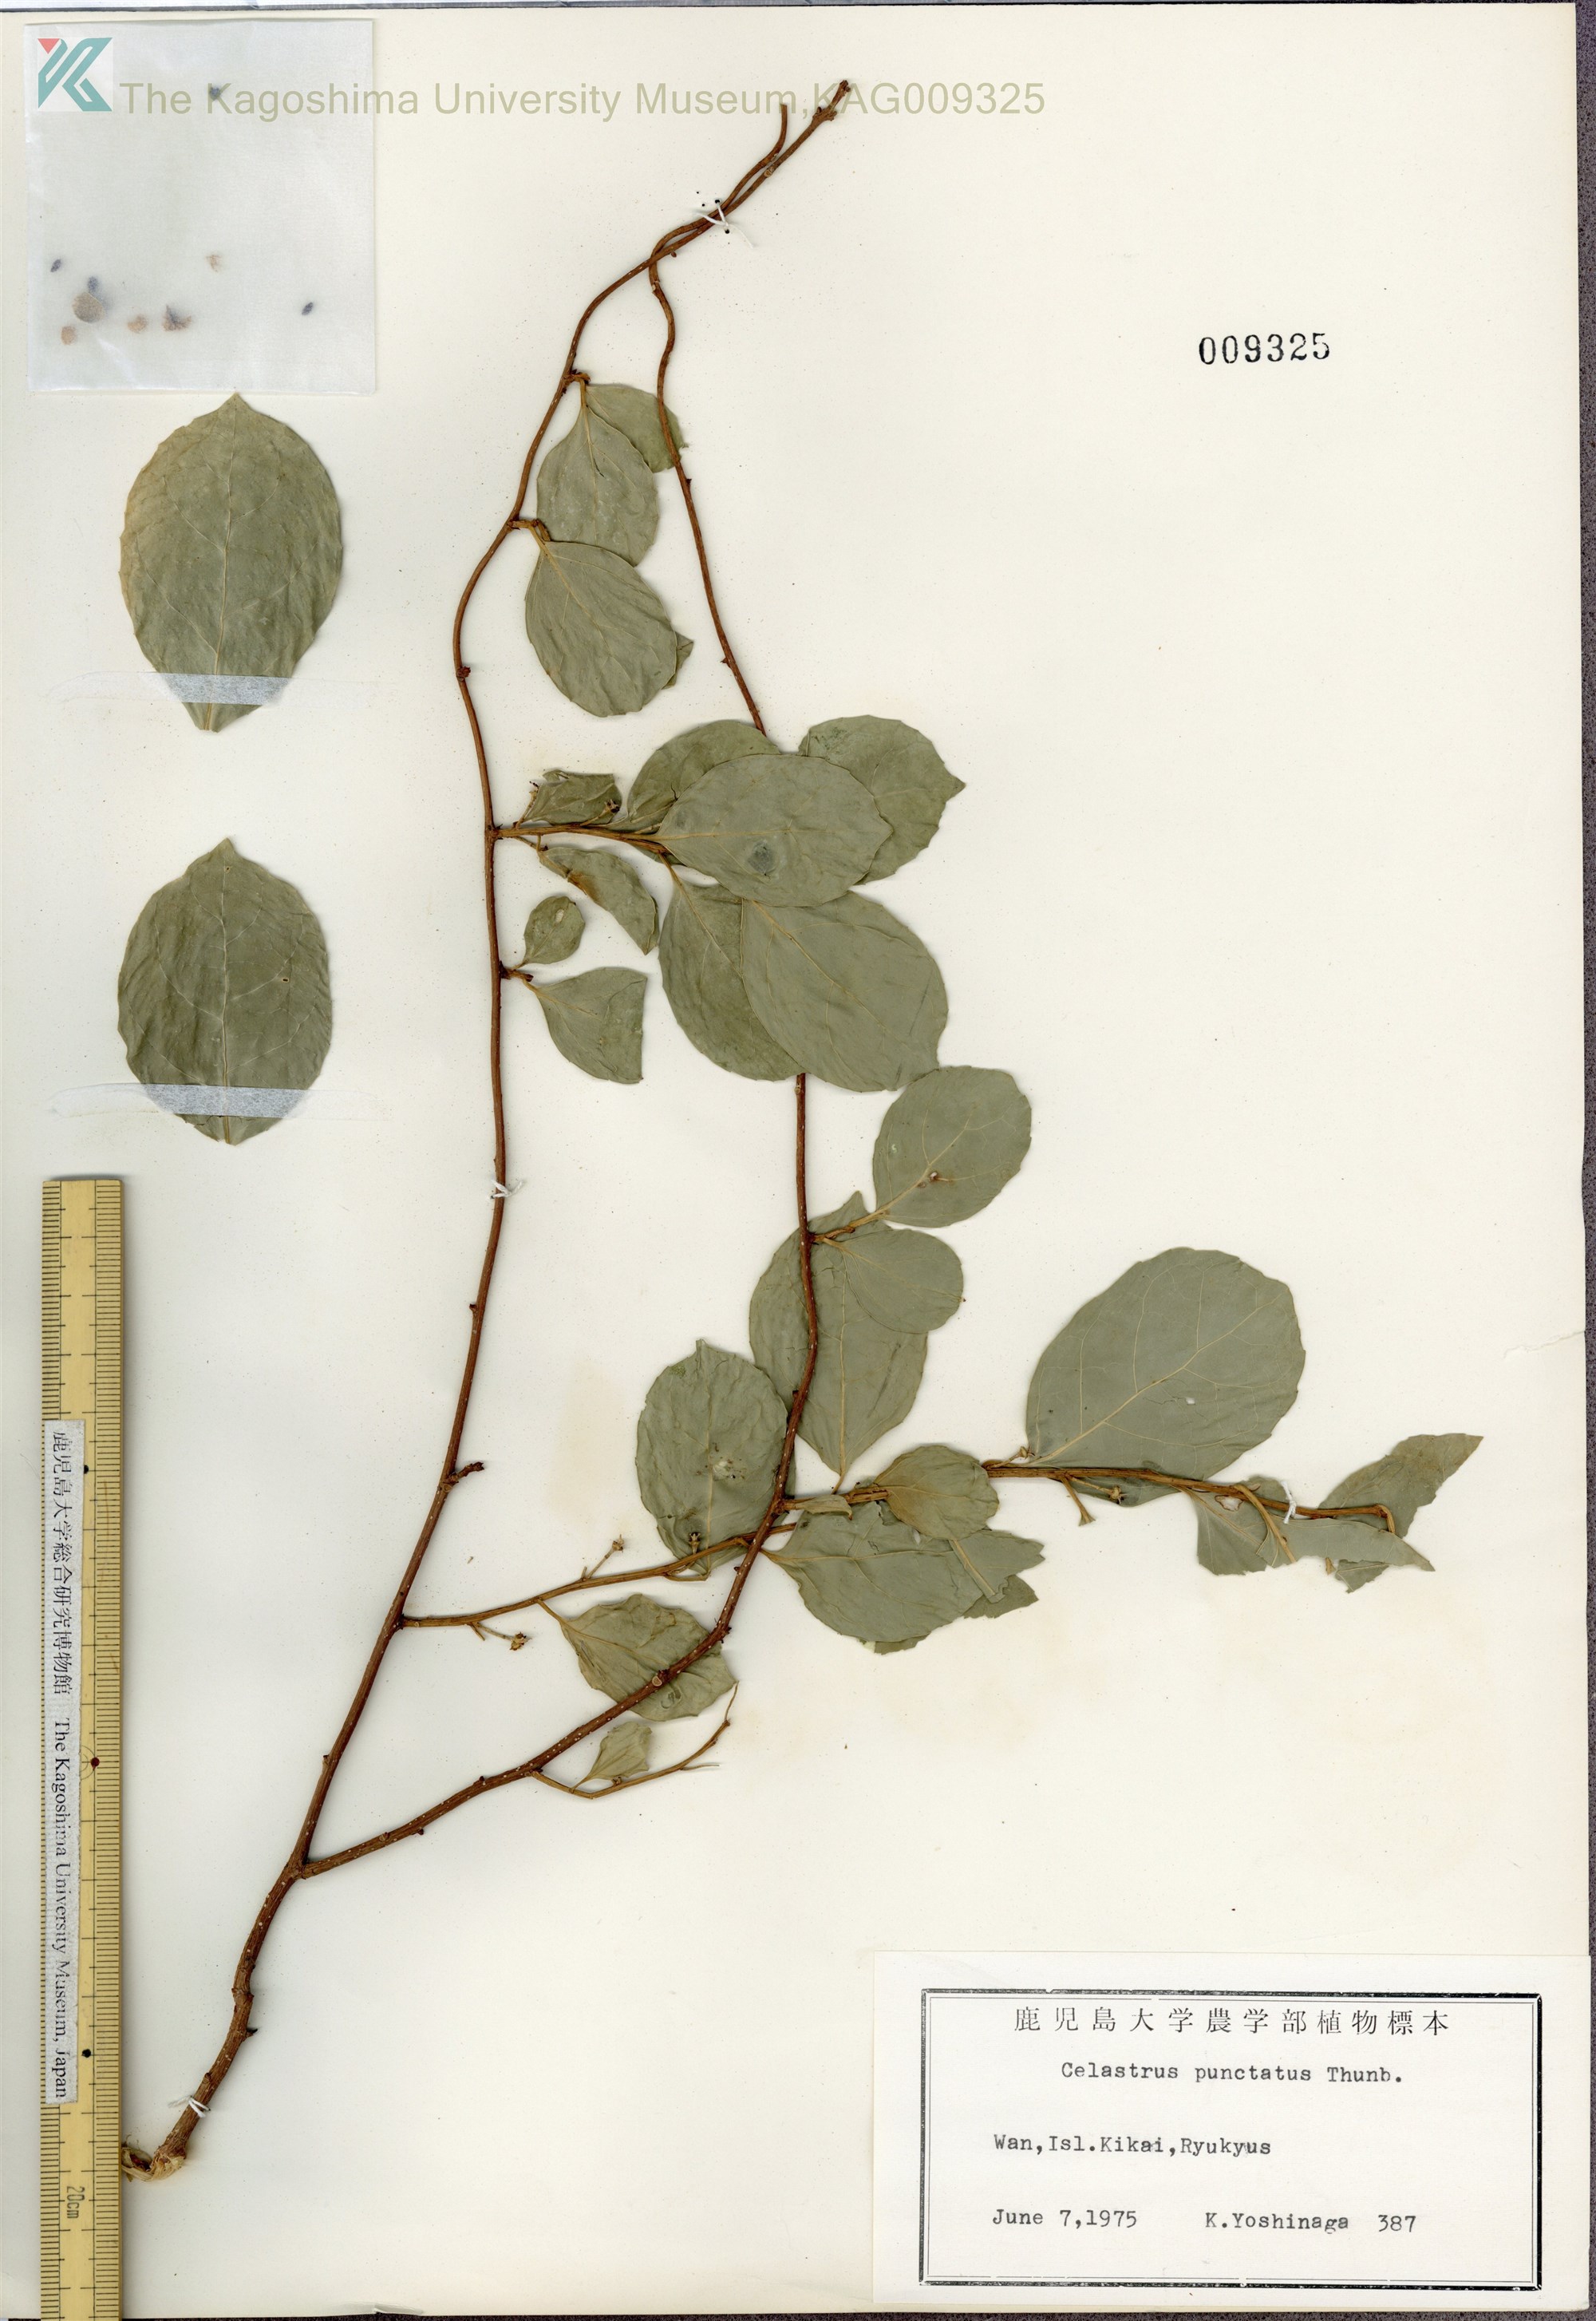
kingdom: Plantae
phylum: Tracheophyta
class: Magnoliopsida
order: Celastrales
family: Celastraceae
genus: Celastrus
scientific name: Celastrus punctatus
